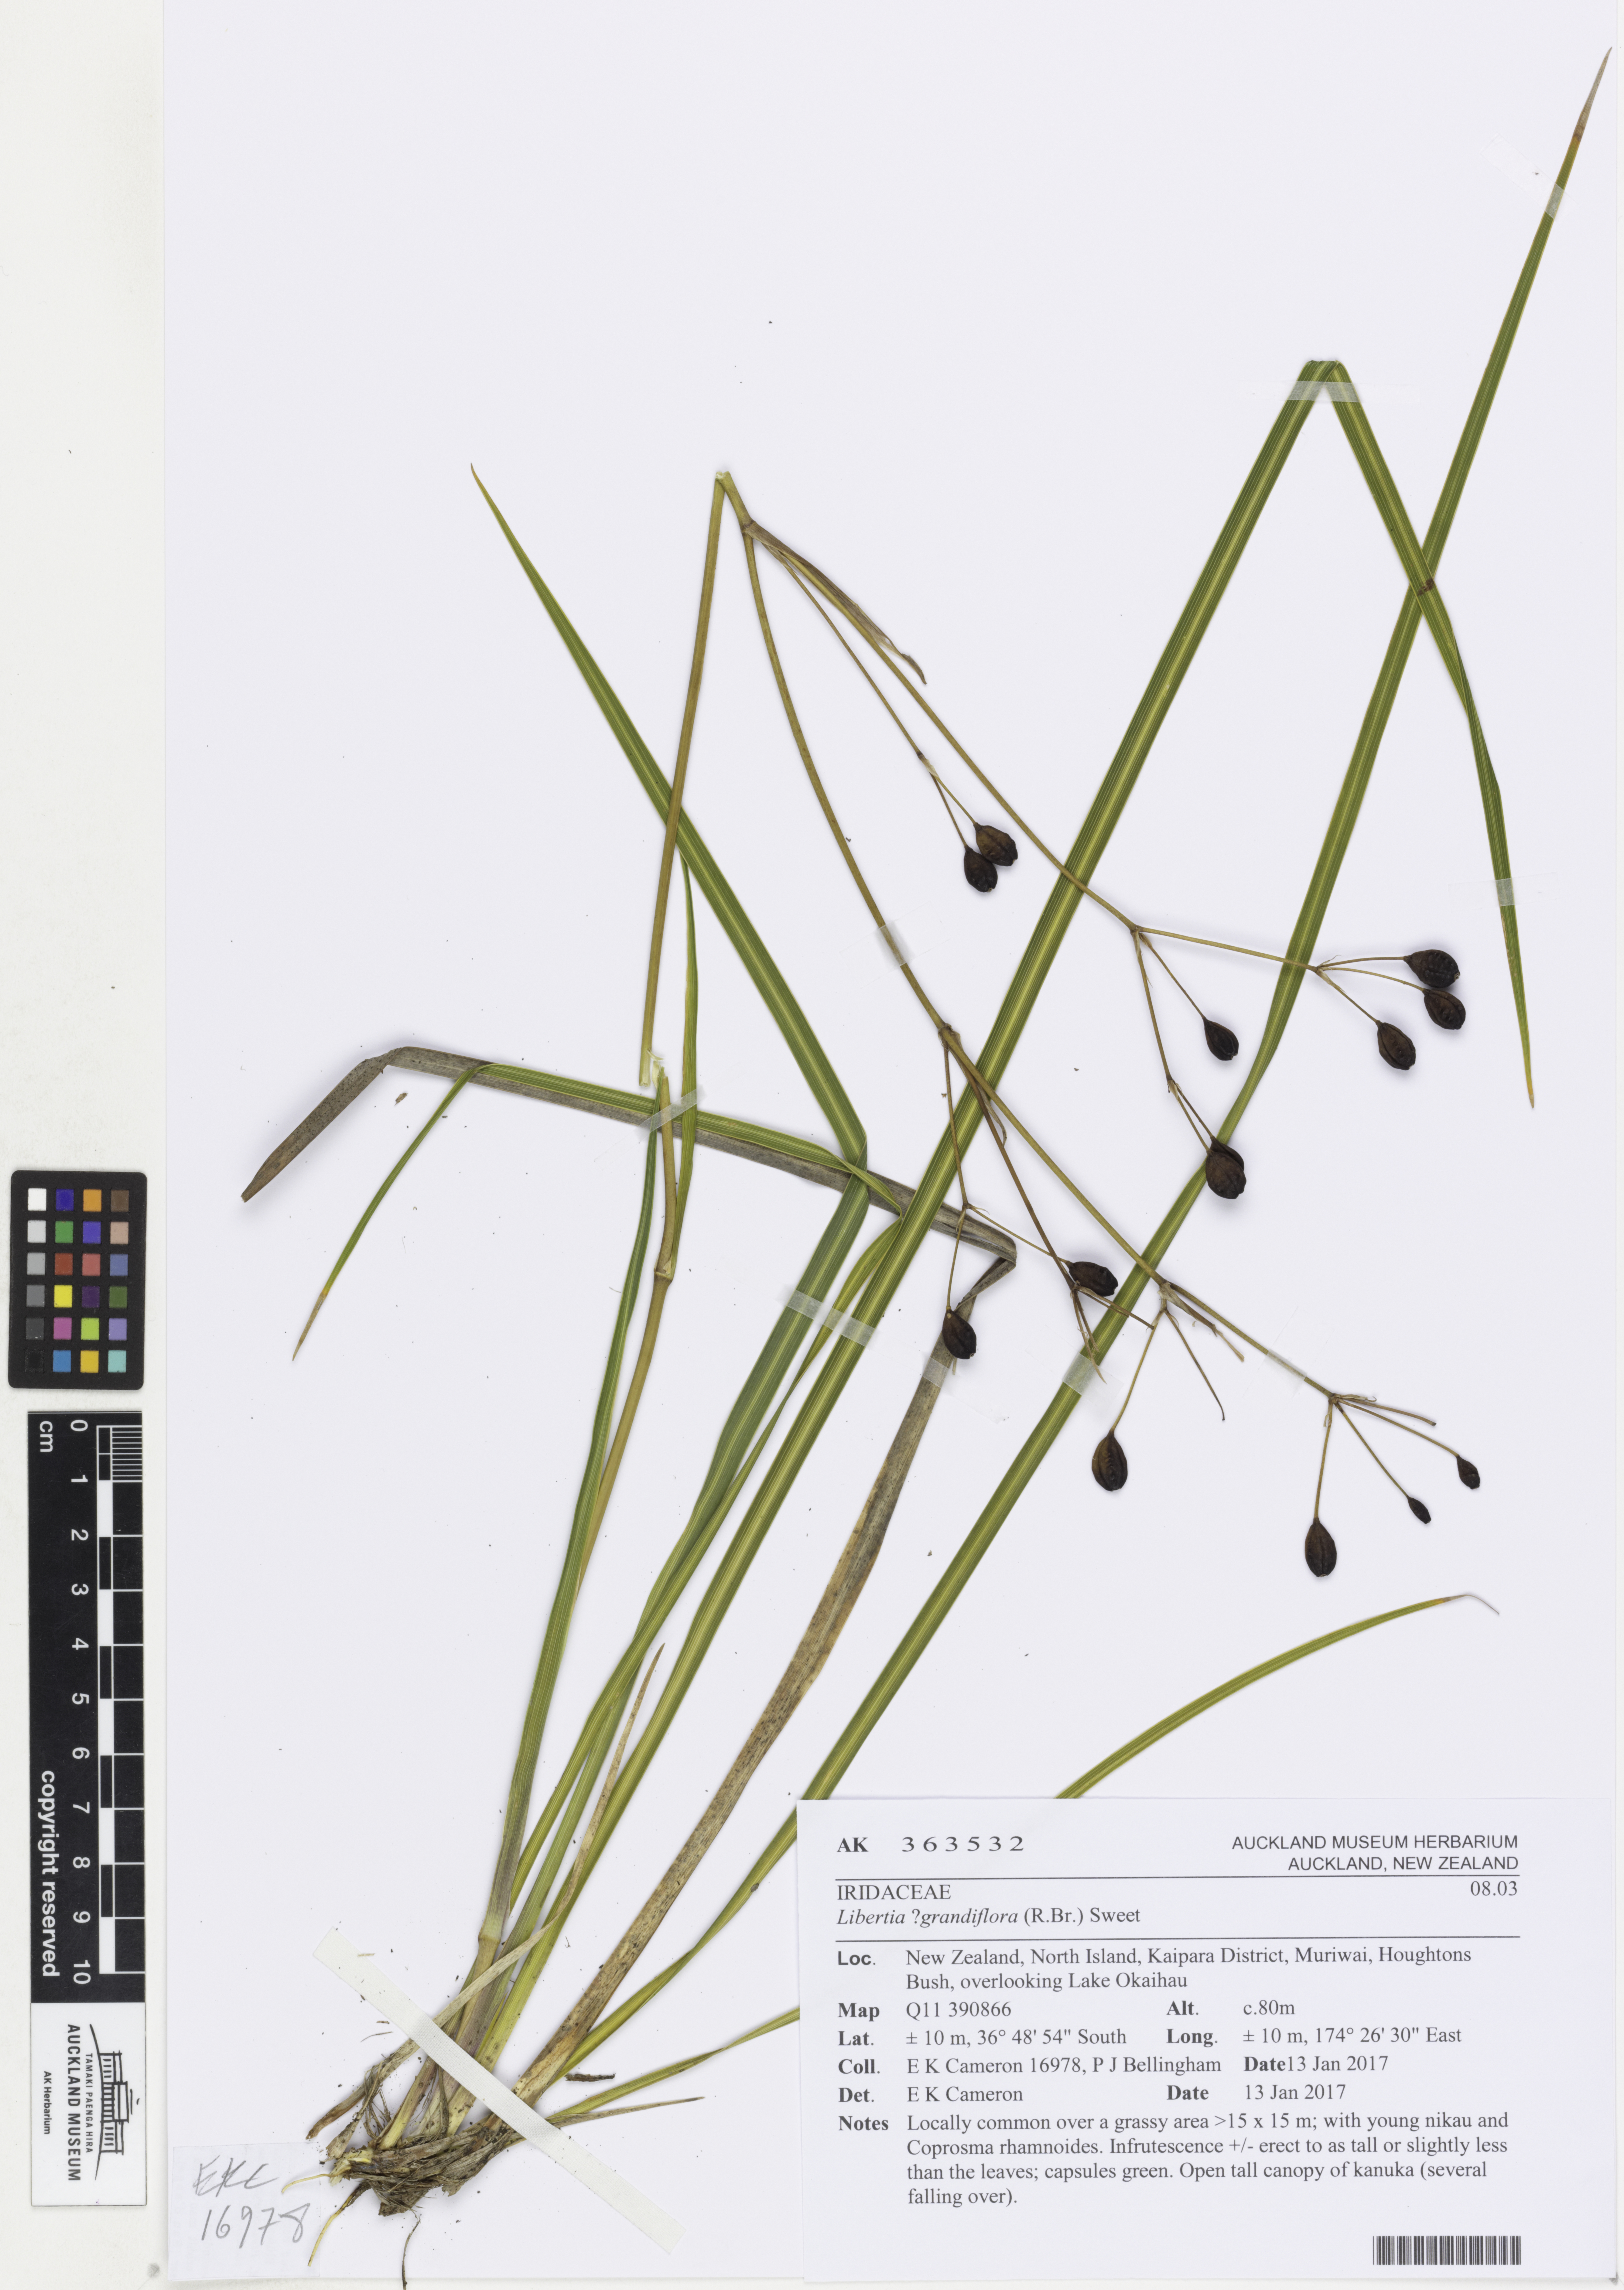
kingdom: Plantae
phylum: Tracheophyta
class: Liliopsida
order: Asparagales
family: Iridaceae
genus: Libertia
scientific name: Libertia grandiflora
